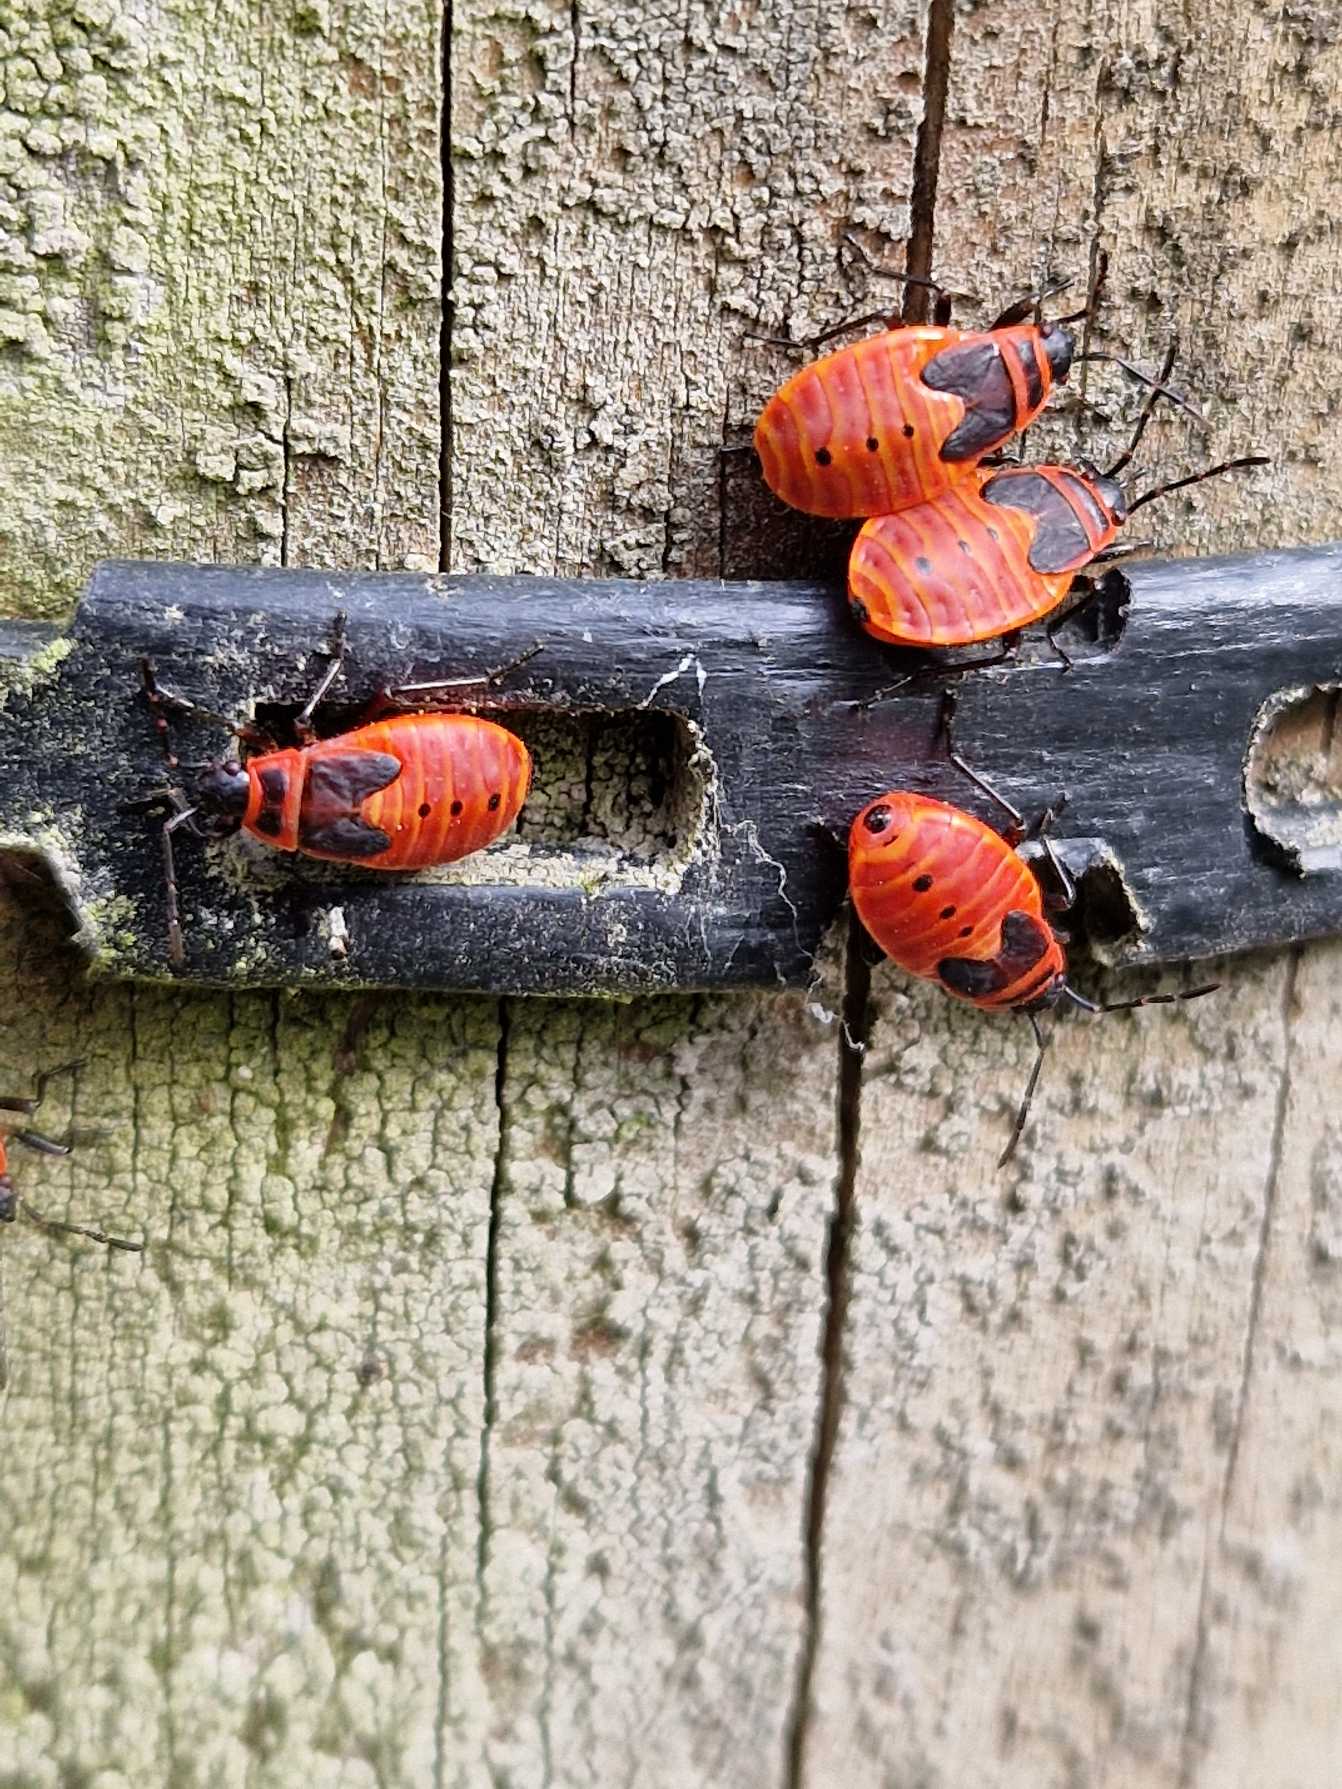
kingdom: Animalia
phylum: Arthropoda
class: Insecta
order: Hemiptera
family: Pyrrhocoridae
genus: Pyrrhocoris
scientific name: Pyrrhocoris apterus
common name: Ildtæge
